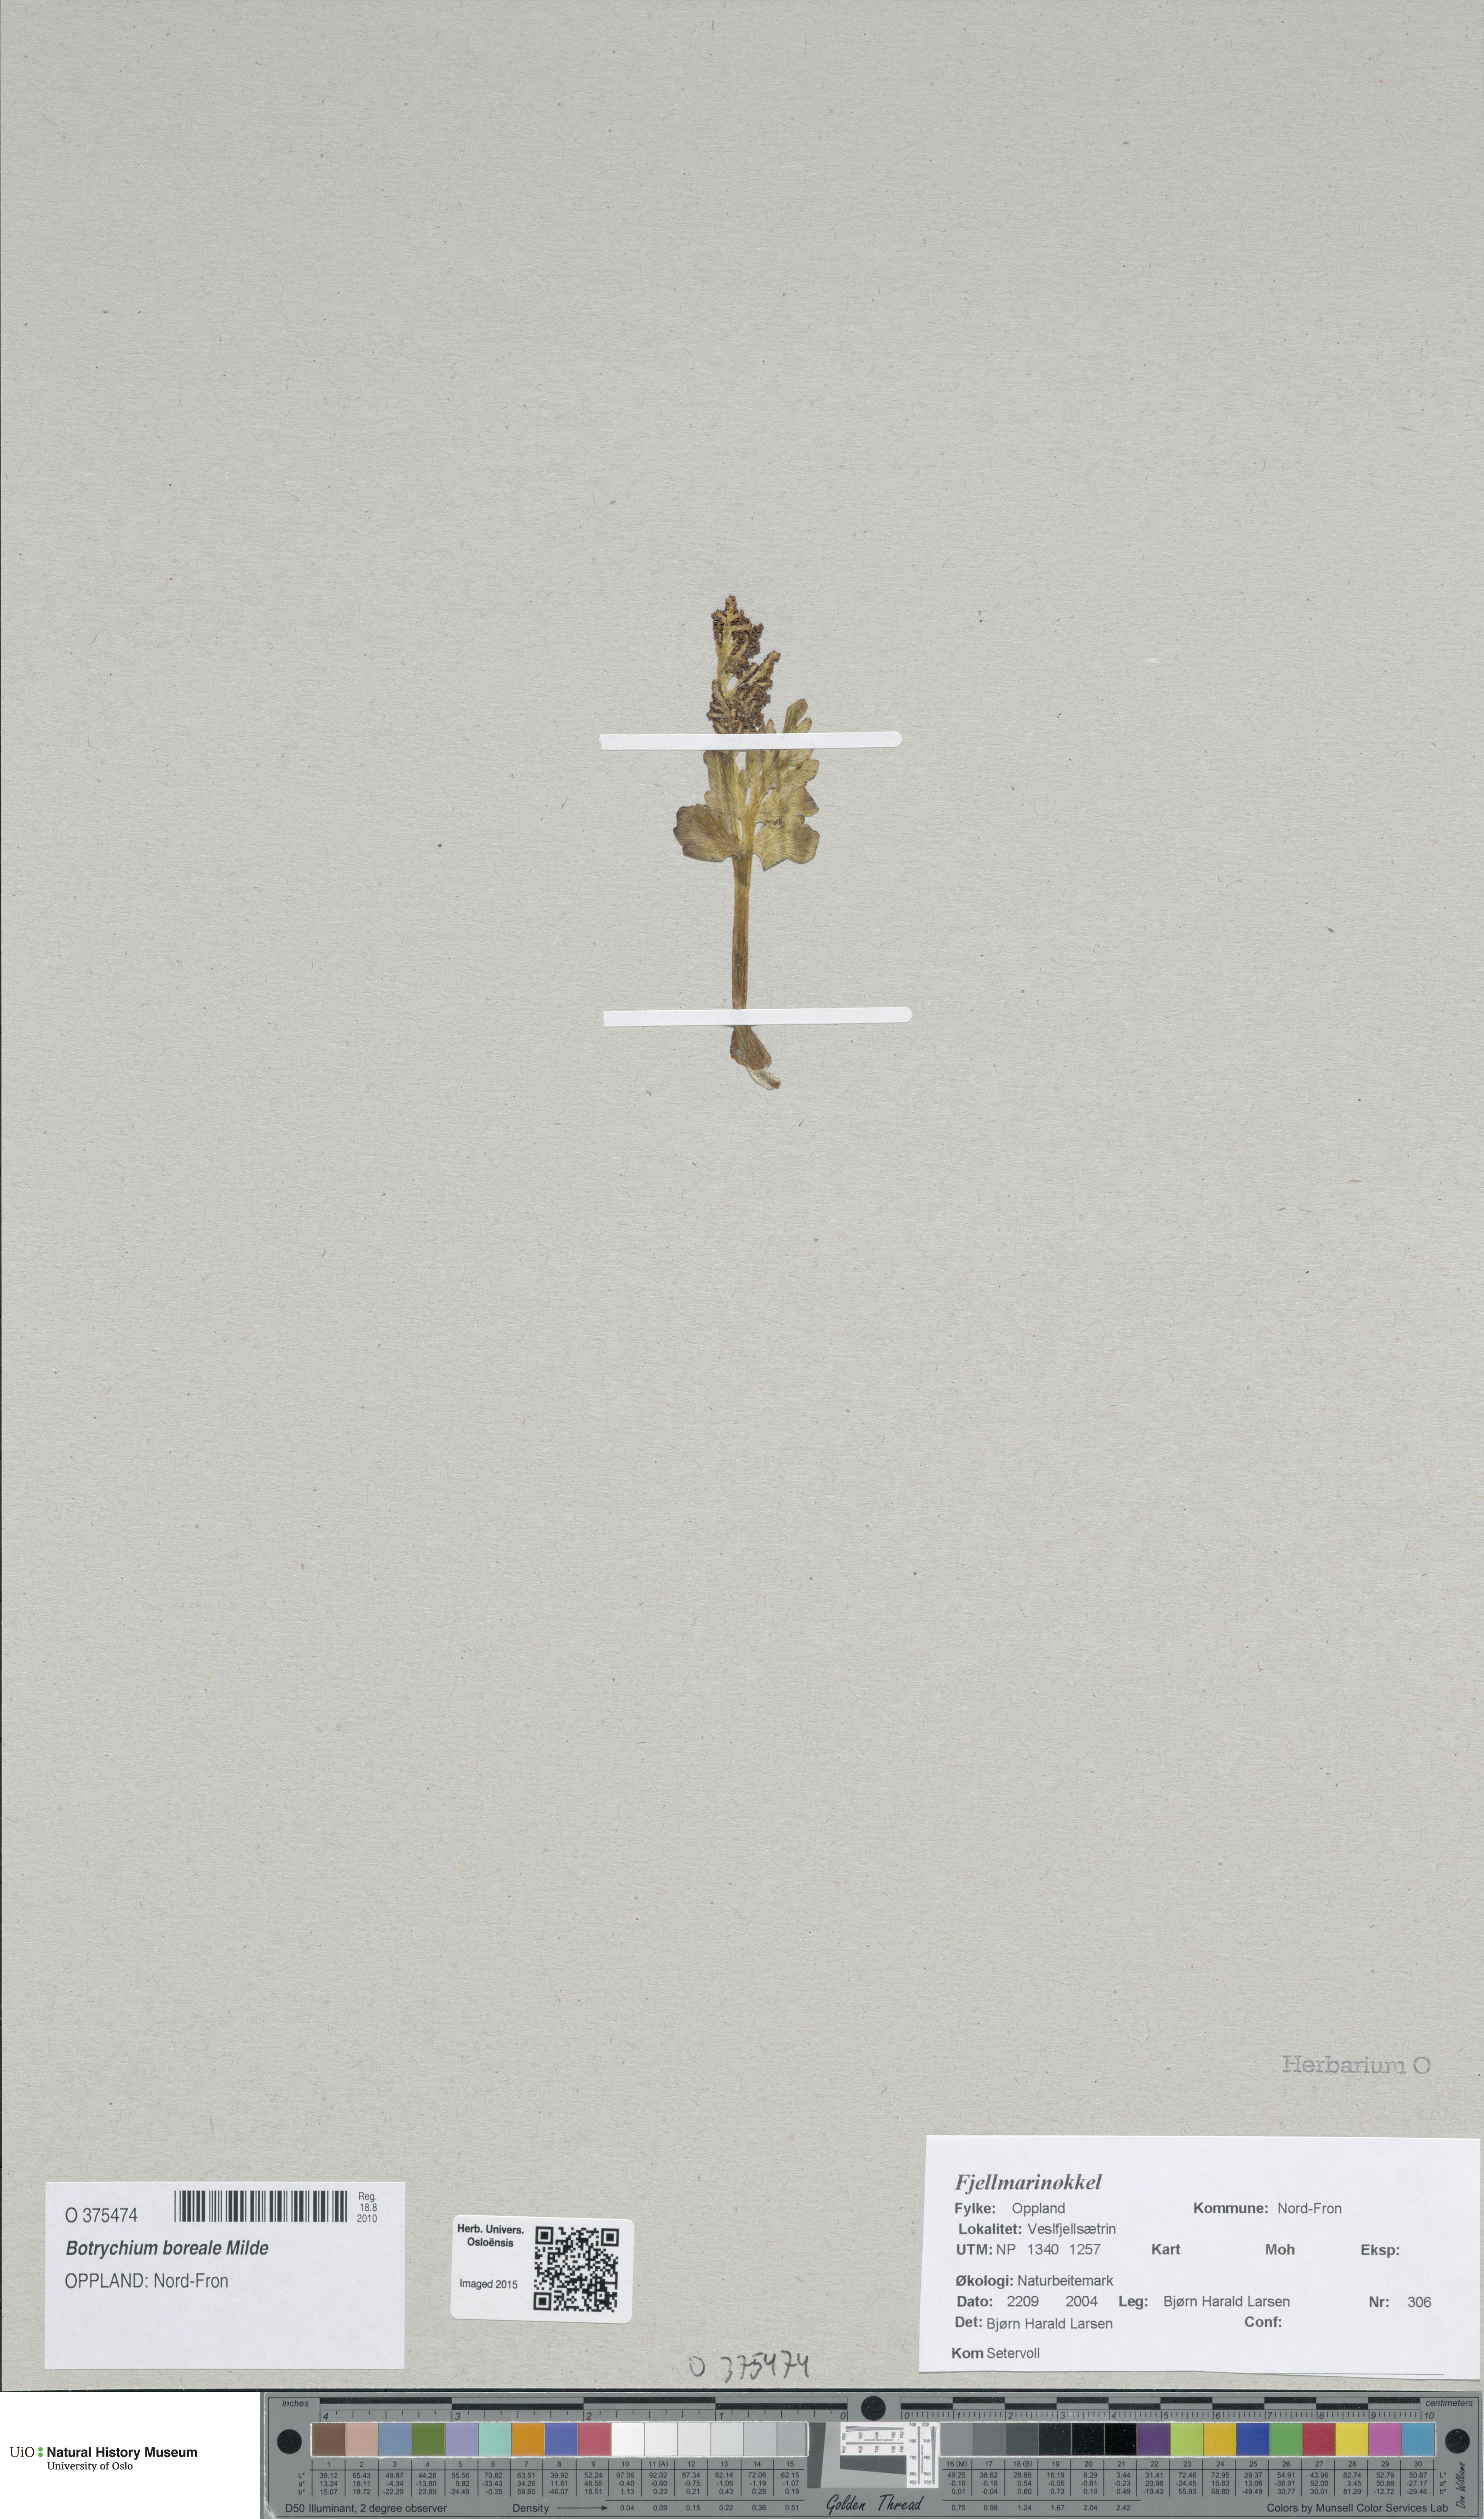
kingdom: Plantae
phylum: Tracheophyta
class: Polypodiopsida
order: Ophioglossales
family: Ophioglossaceae
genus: Botrychium
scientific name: Botrychium boreale
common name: Boreal moonwort
